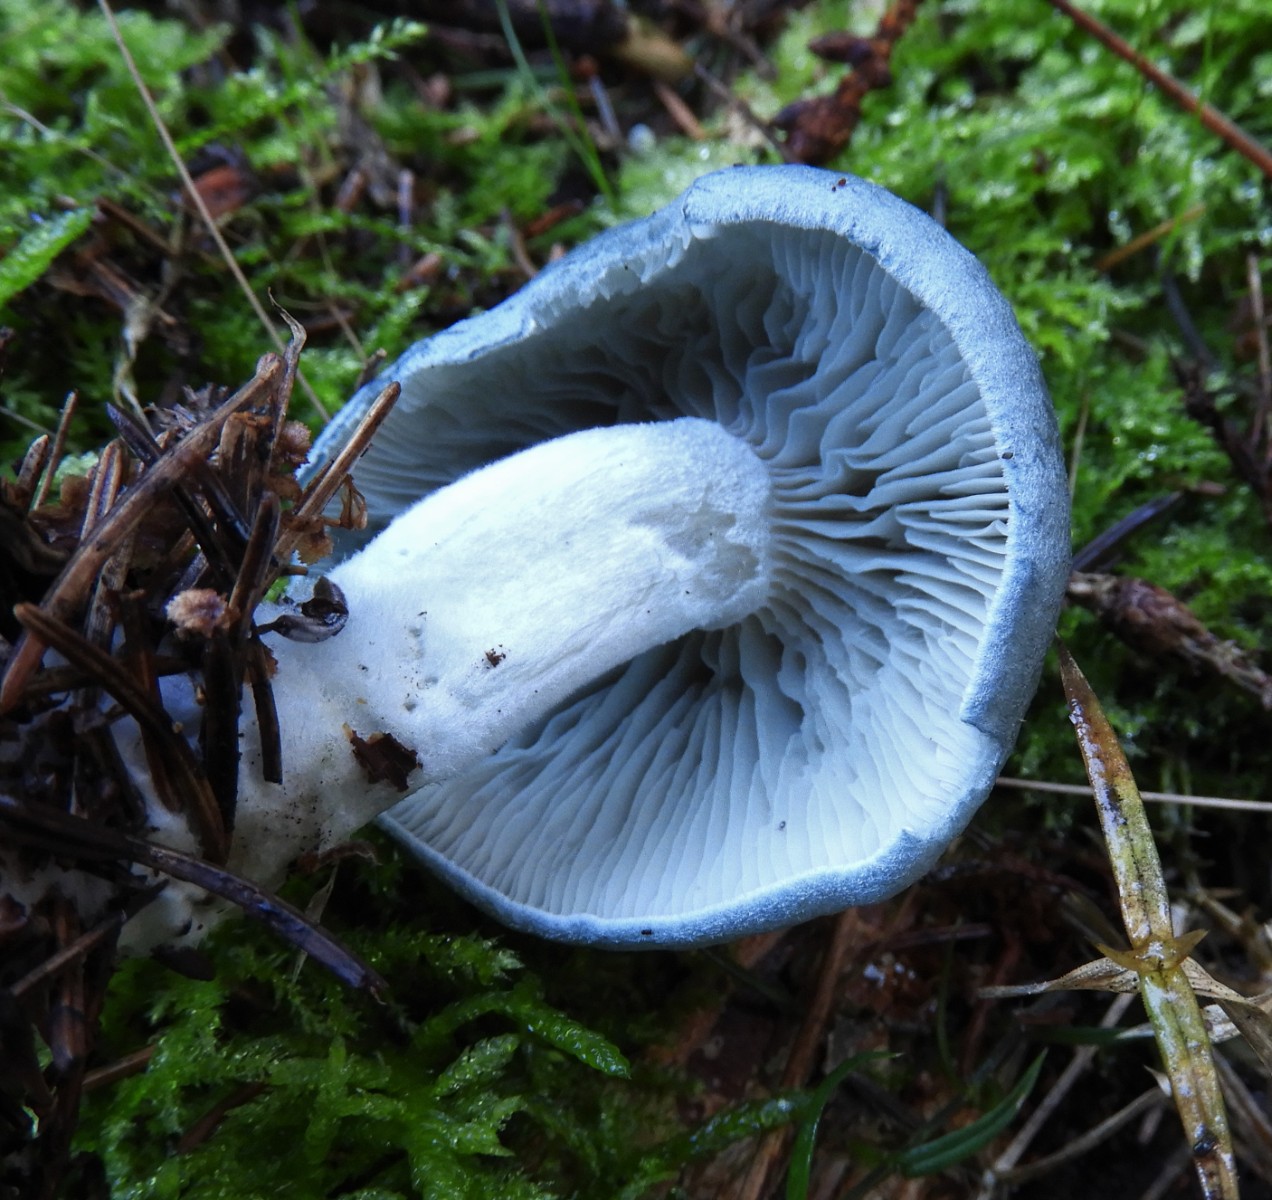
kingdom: Fungi
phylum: Basidiomycota
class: Agaricomycetes
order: Agaricales
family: Tricholomataceae
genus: Clitocybe
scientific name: Clitocybe odora
